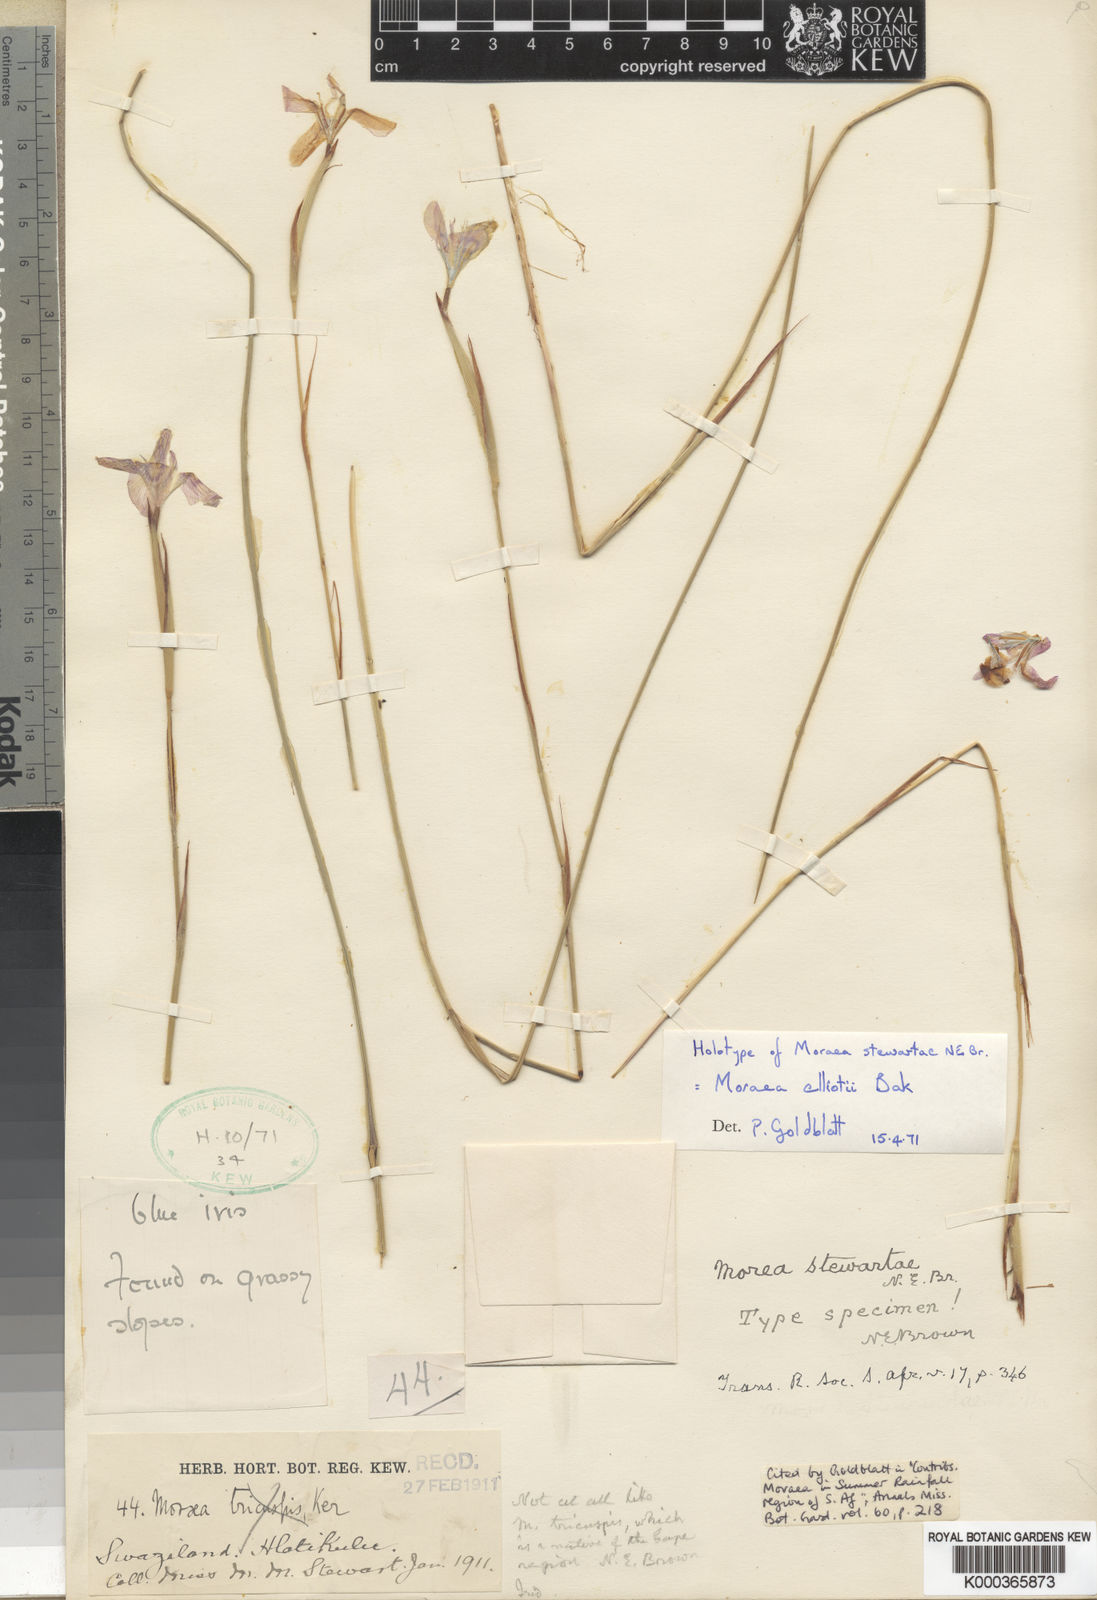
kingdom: Plantae
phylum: Tracheophyta
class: Liliopsida
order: Asparagales
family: Iridaceae
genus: Moraea
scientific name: Moraea elliotii
